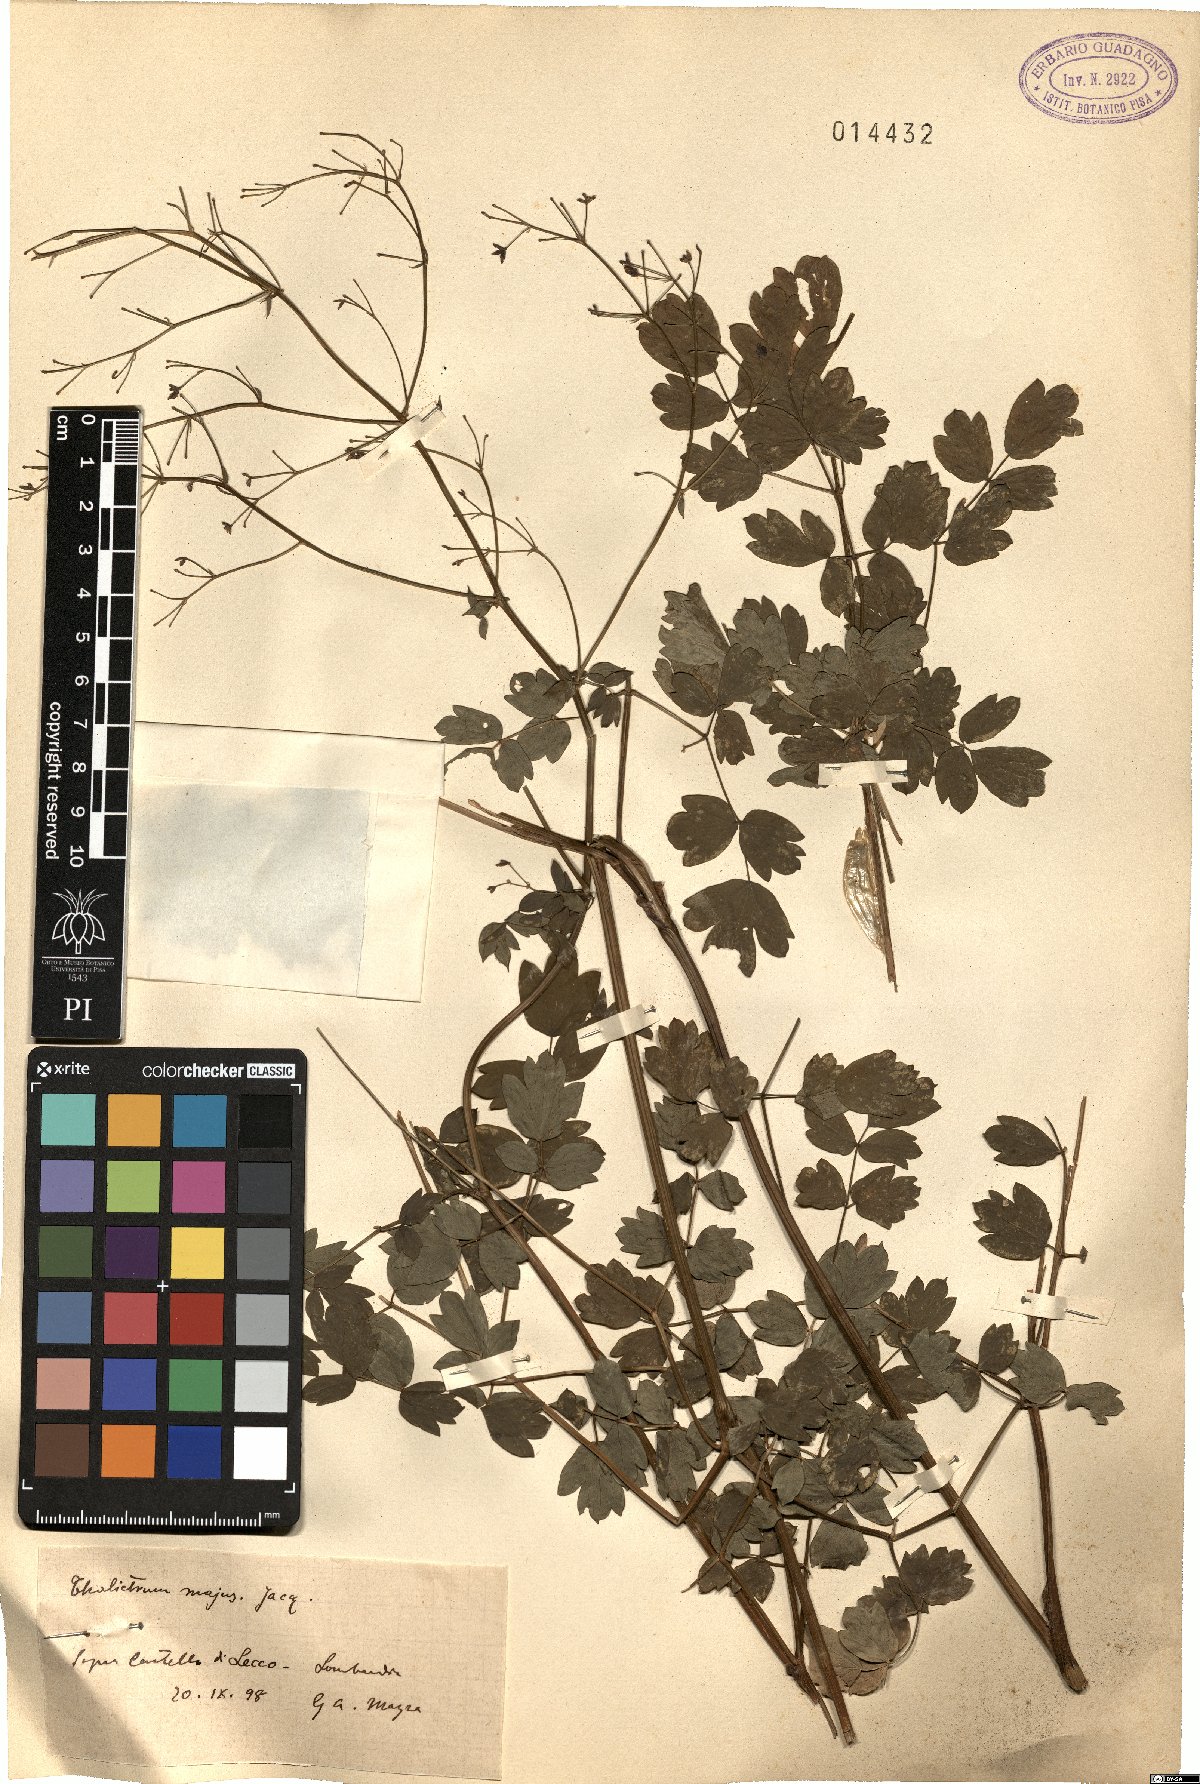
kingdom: Plantae
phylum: Tracheophyta
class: Magnoliopsida
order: Ranunculales
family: Ranunculaceae
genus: Thalictrum
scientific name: Thalictrum minus
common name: Lesser meadow-rue
